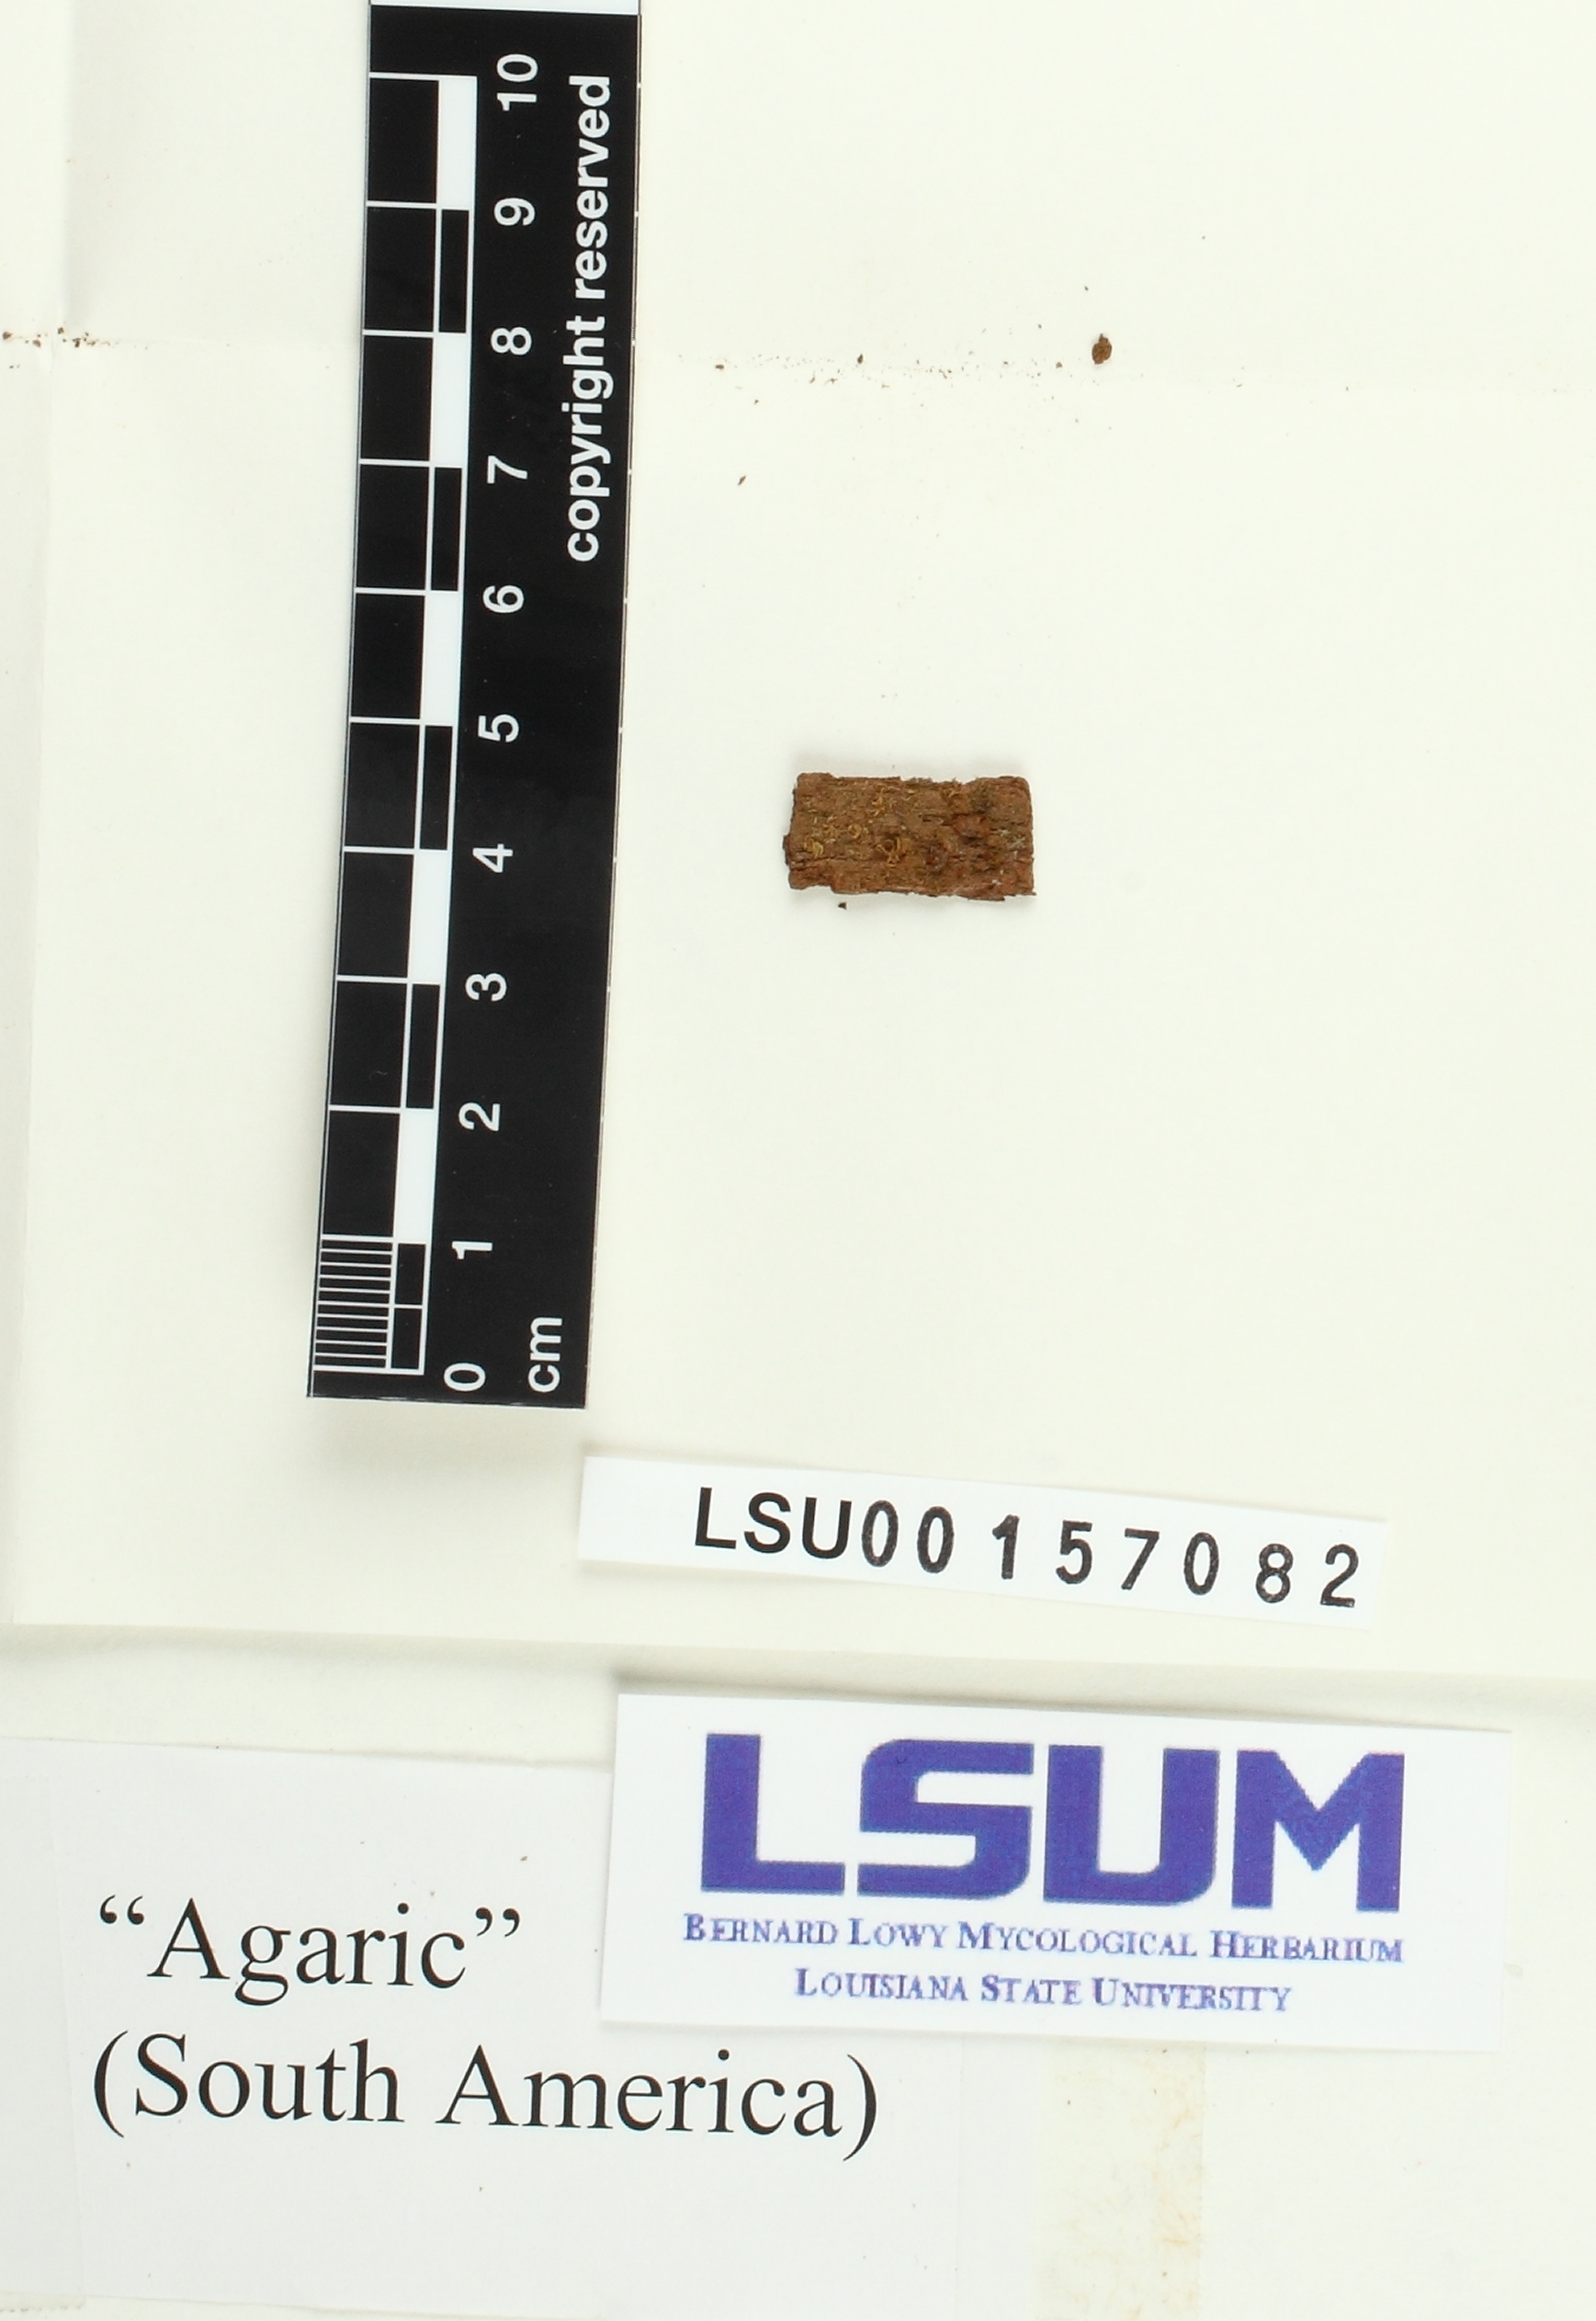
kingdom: Fungi
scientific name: Fungi
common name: Fungi
